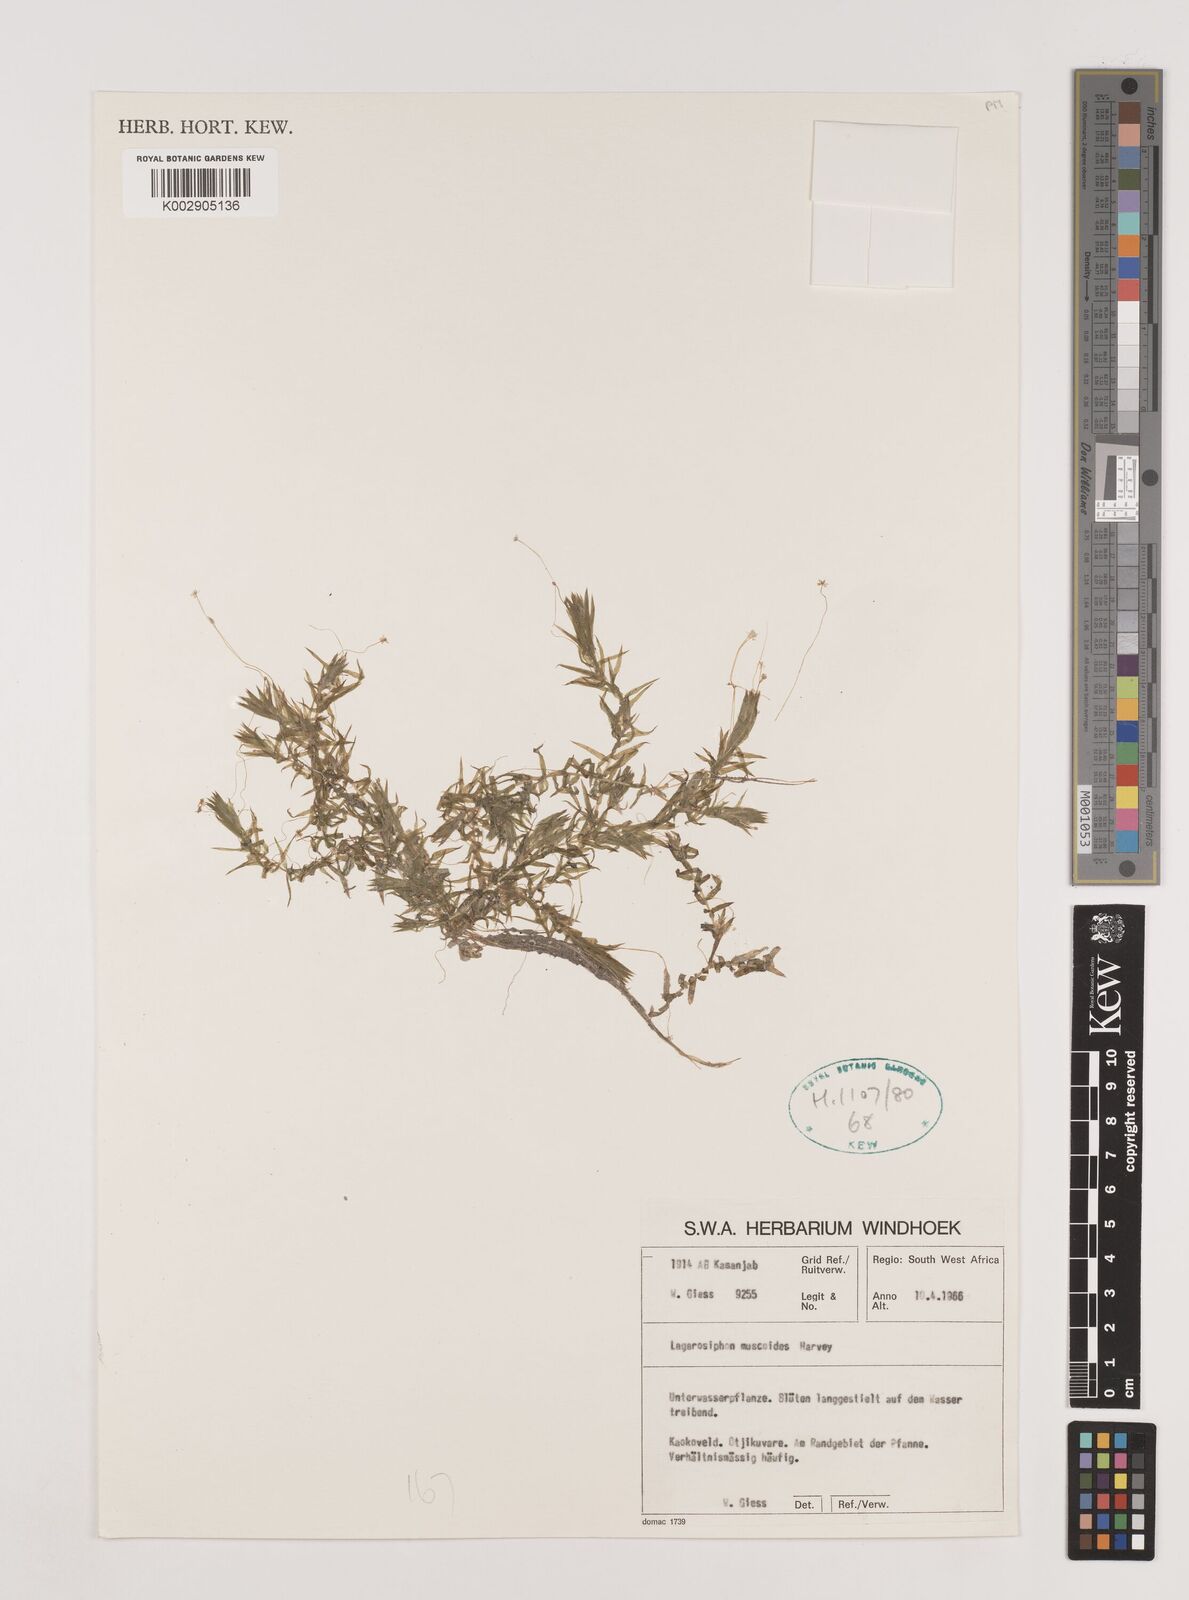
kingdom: Plantae
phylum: Tracheophyta
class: Liliopsida
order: Alismatales
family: Hydrocharitaceae
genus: Lagarosiphon
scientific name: Lagarosiphon muscoides
